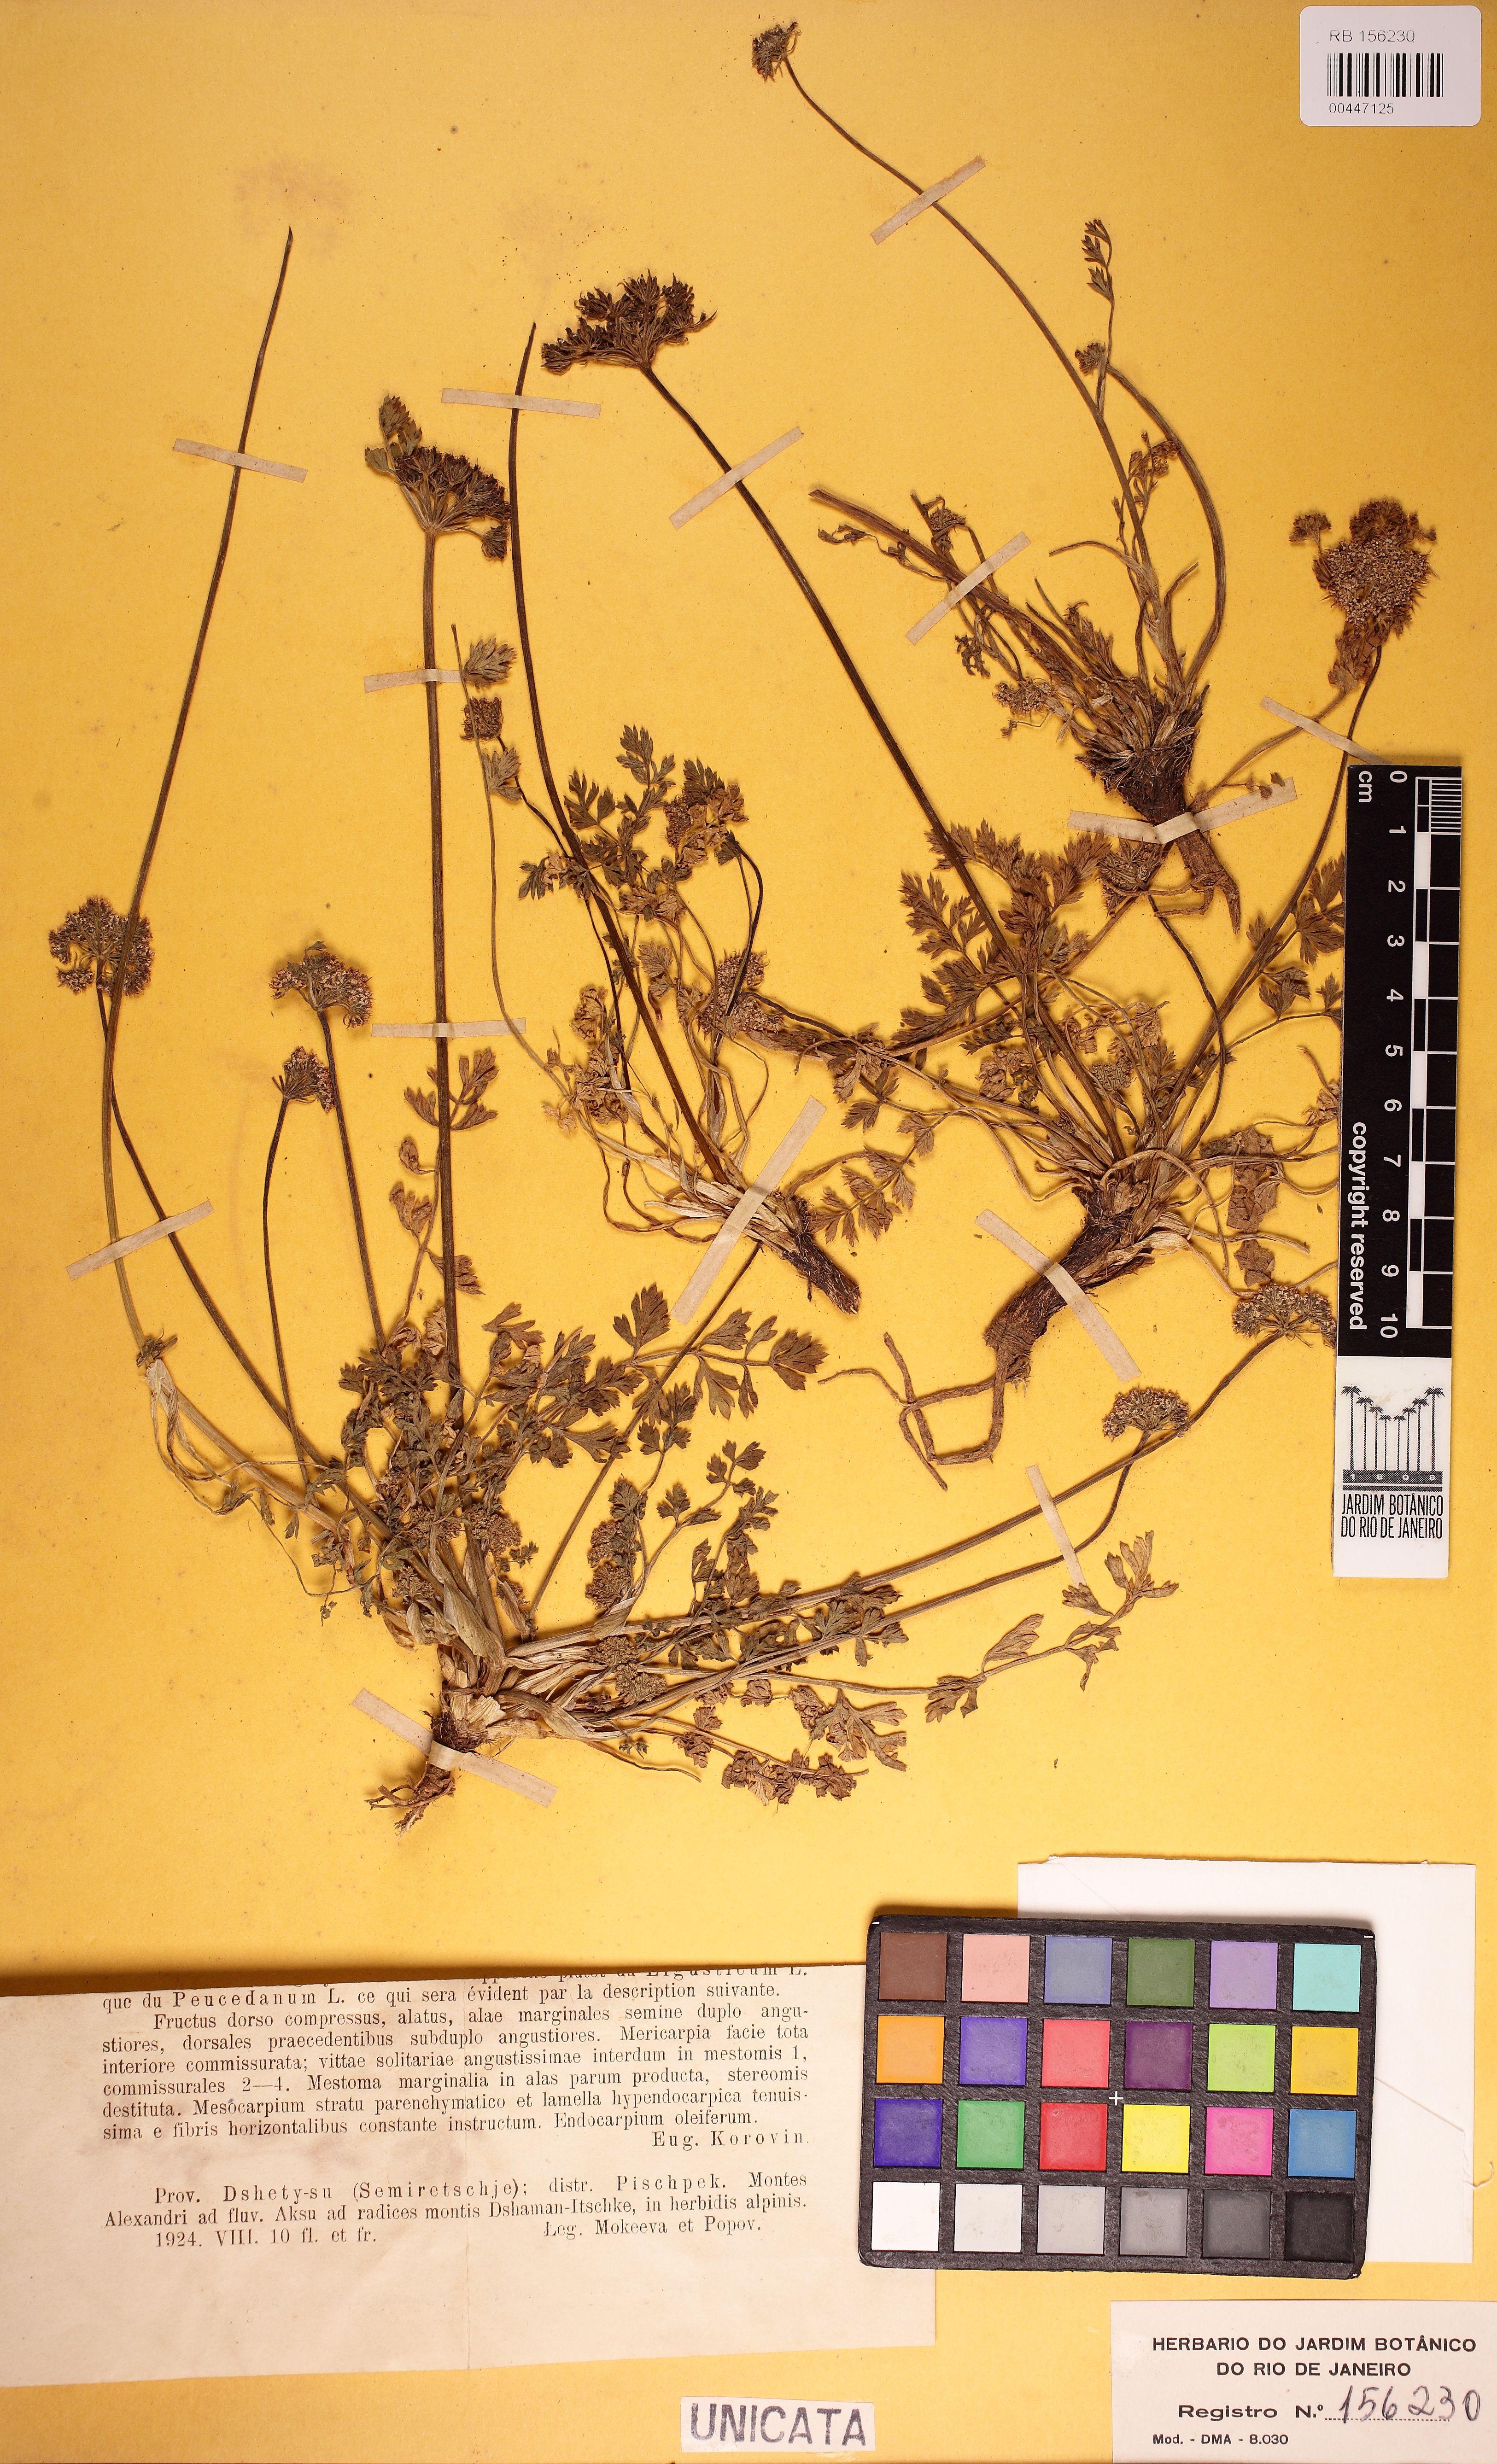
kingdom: Plantae
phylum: Tracheophyta
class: Magnoliopsida
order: Apiales
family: Apiaceae
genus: Pachypleurum
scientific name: Pachypleurum mutellinoides
